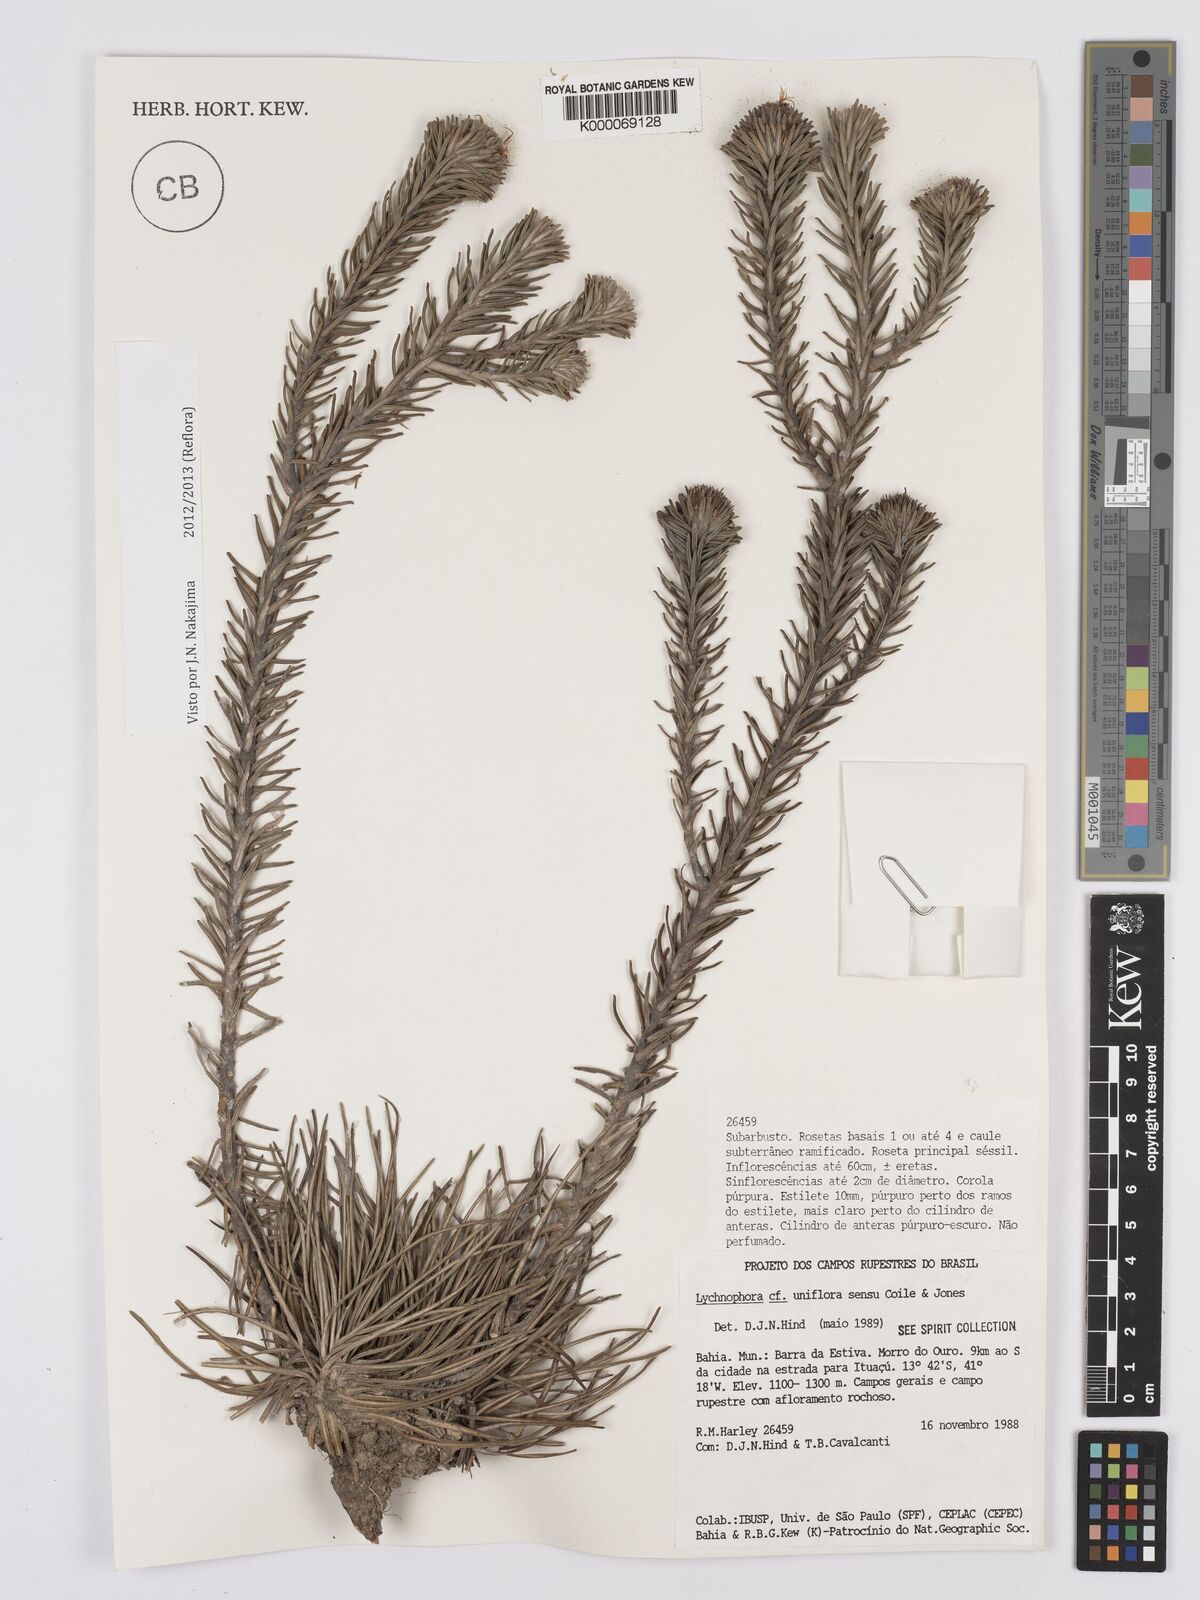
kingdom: Plantae
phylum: Tracheophyta
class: Magnoliopsida
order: Asterales
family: Asteraceae
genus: Lychnophora
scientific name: Lychnophora uniflora
